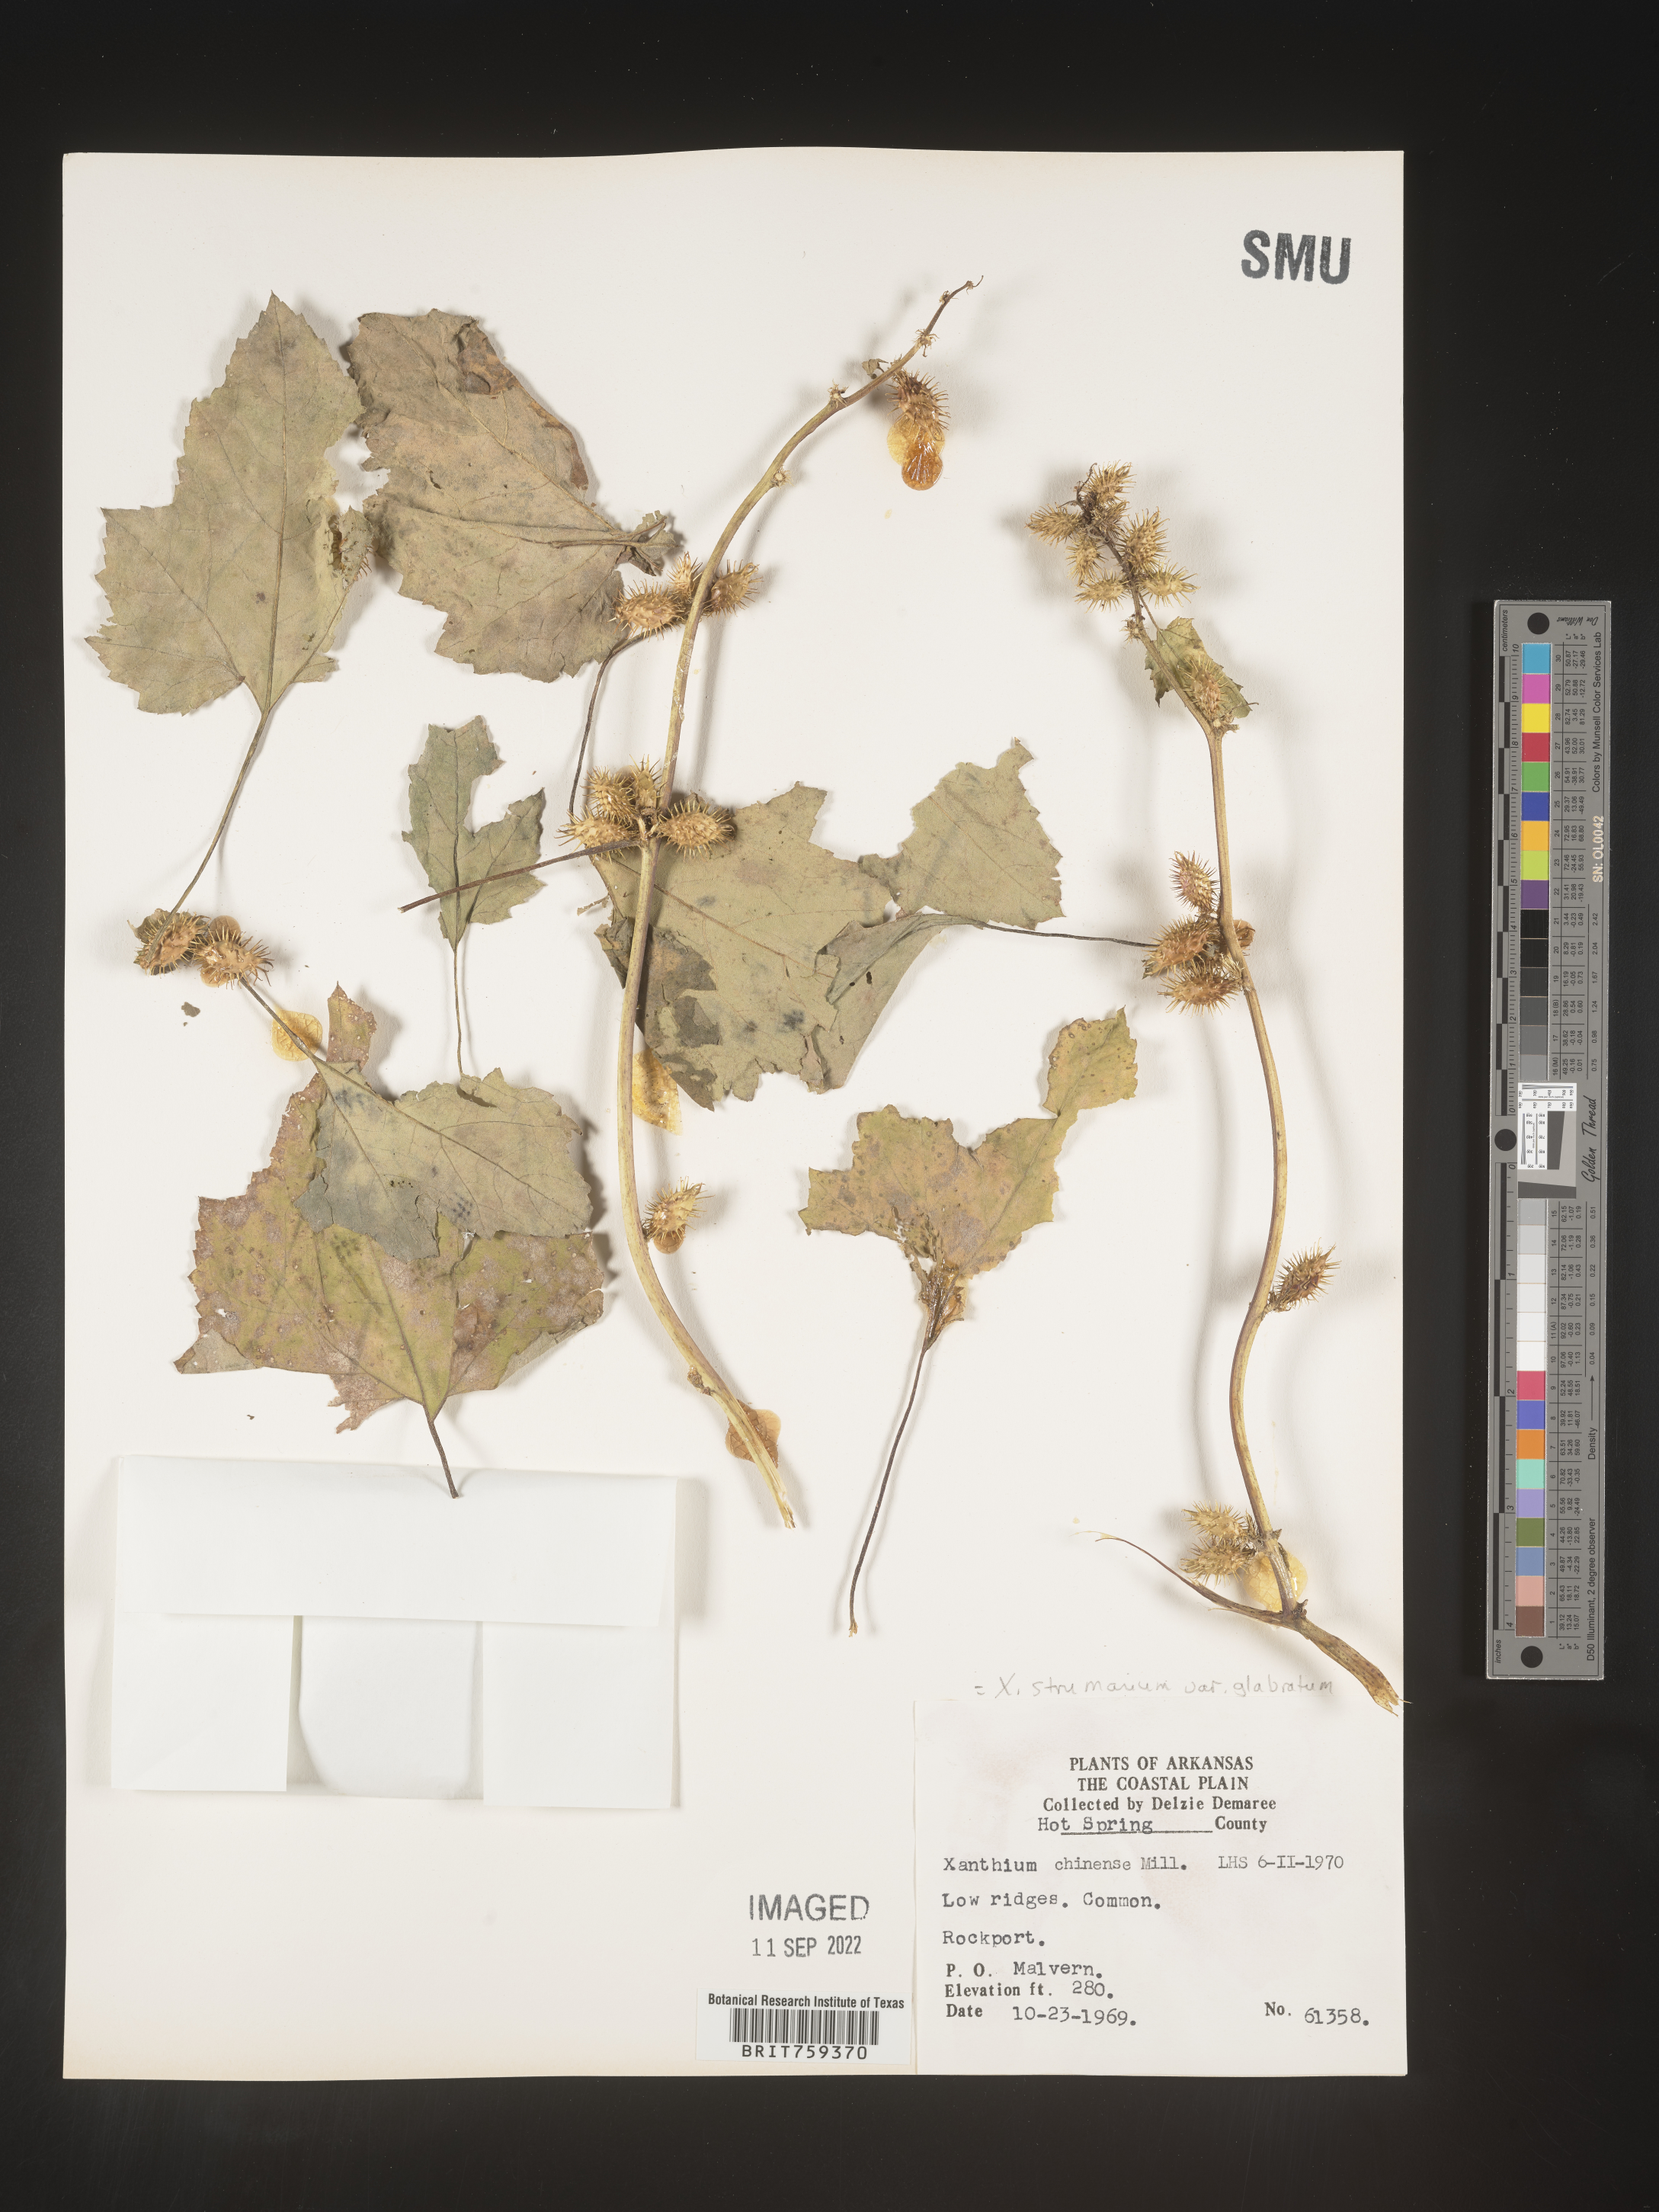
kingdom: Plantae
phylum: Tracheophyta
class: Magnoliopsida
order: Asterales
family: Asteraceae
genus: Xanthium
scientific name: Xanthium occidentale
